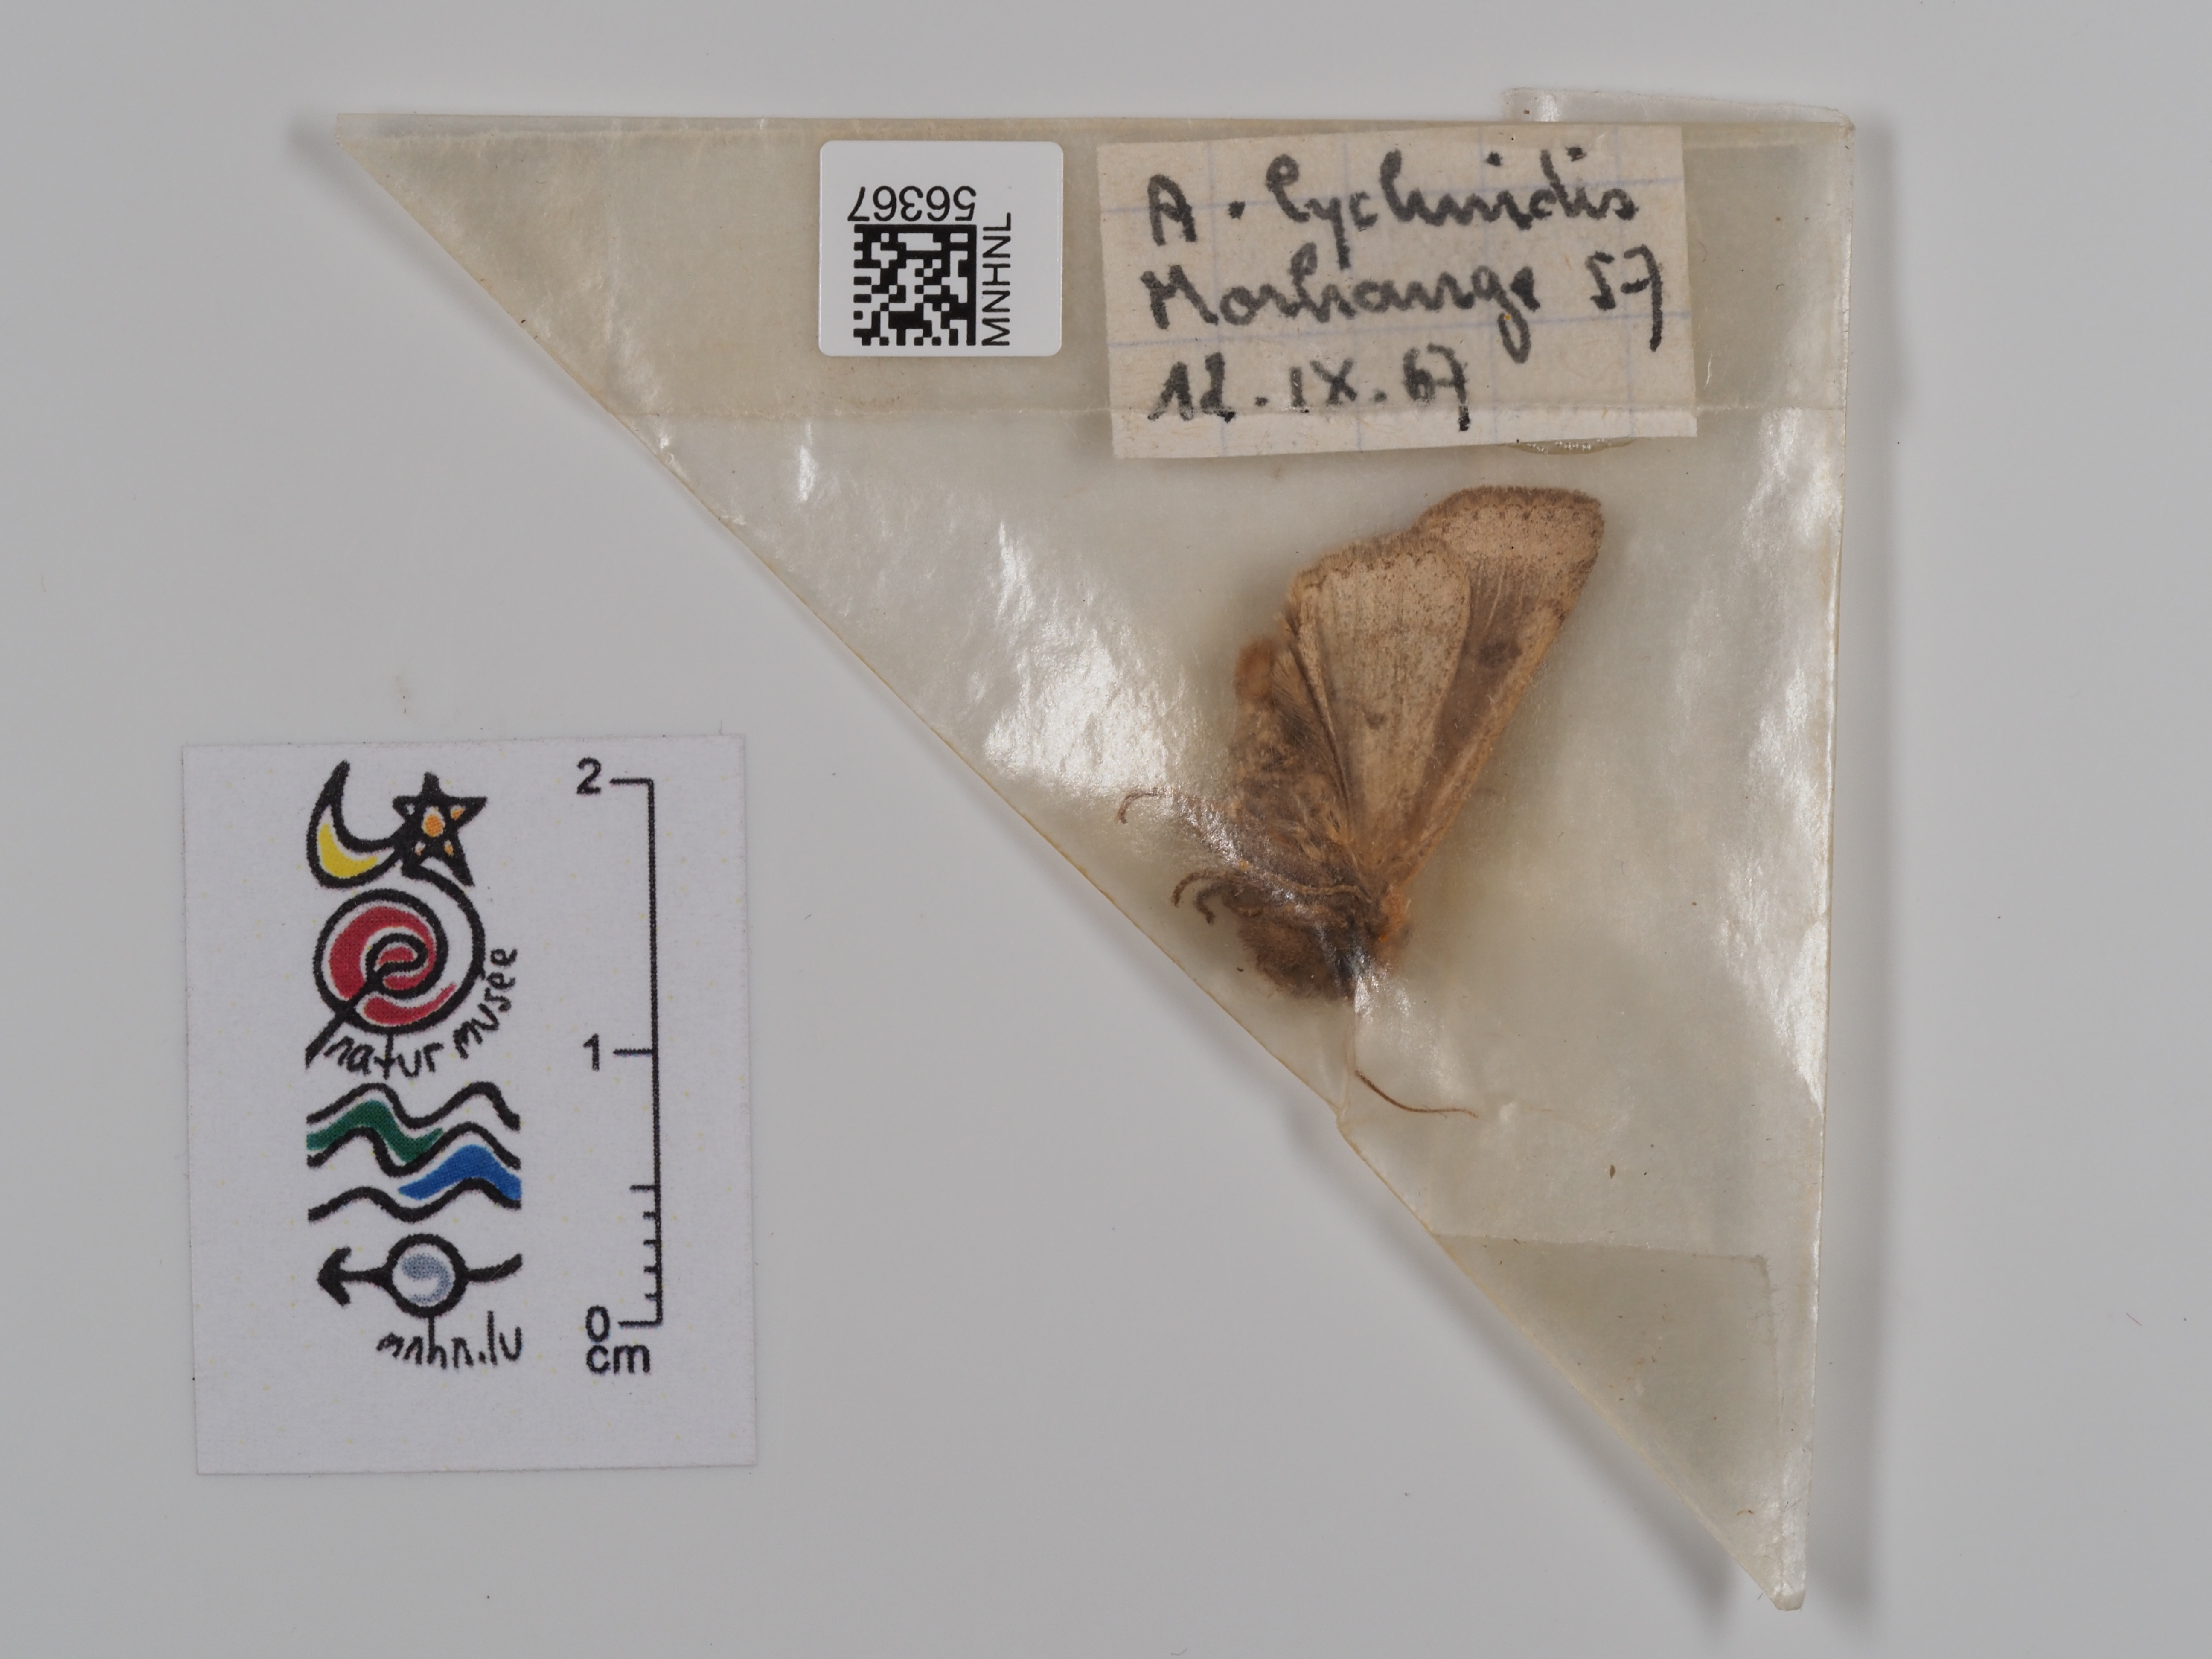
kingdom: Animalia
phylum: Arthropoda
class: Insecta
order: Lepidoptera
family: Noctuidae
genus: Agrochola
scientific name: Agrochola lychnidis
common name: Beaded chestnut
